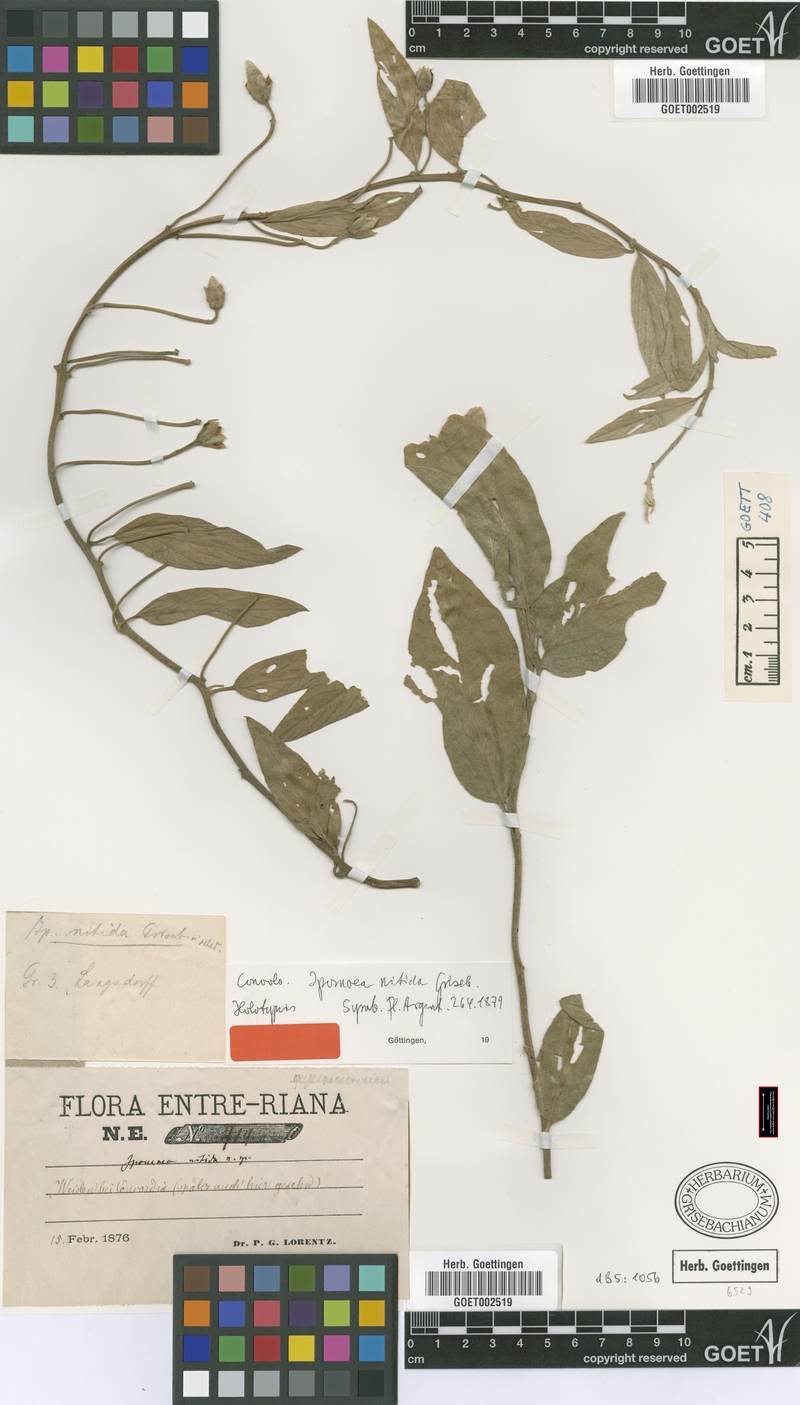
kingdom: Plantae
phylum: Tracheophyta
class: Magnoliopsida
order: Solanales
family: Convolvulaceae
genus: Ipomoea
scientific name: Ipomoea nitida
